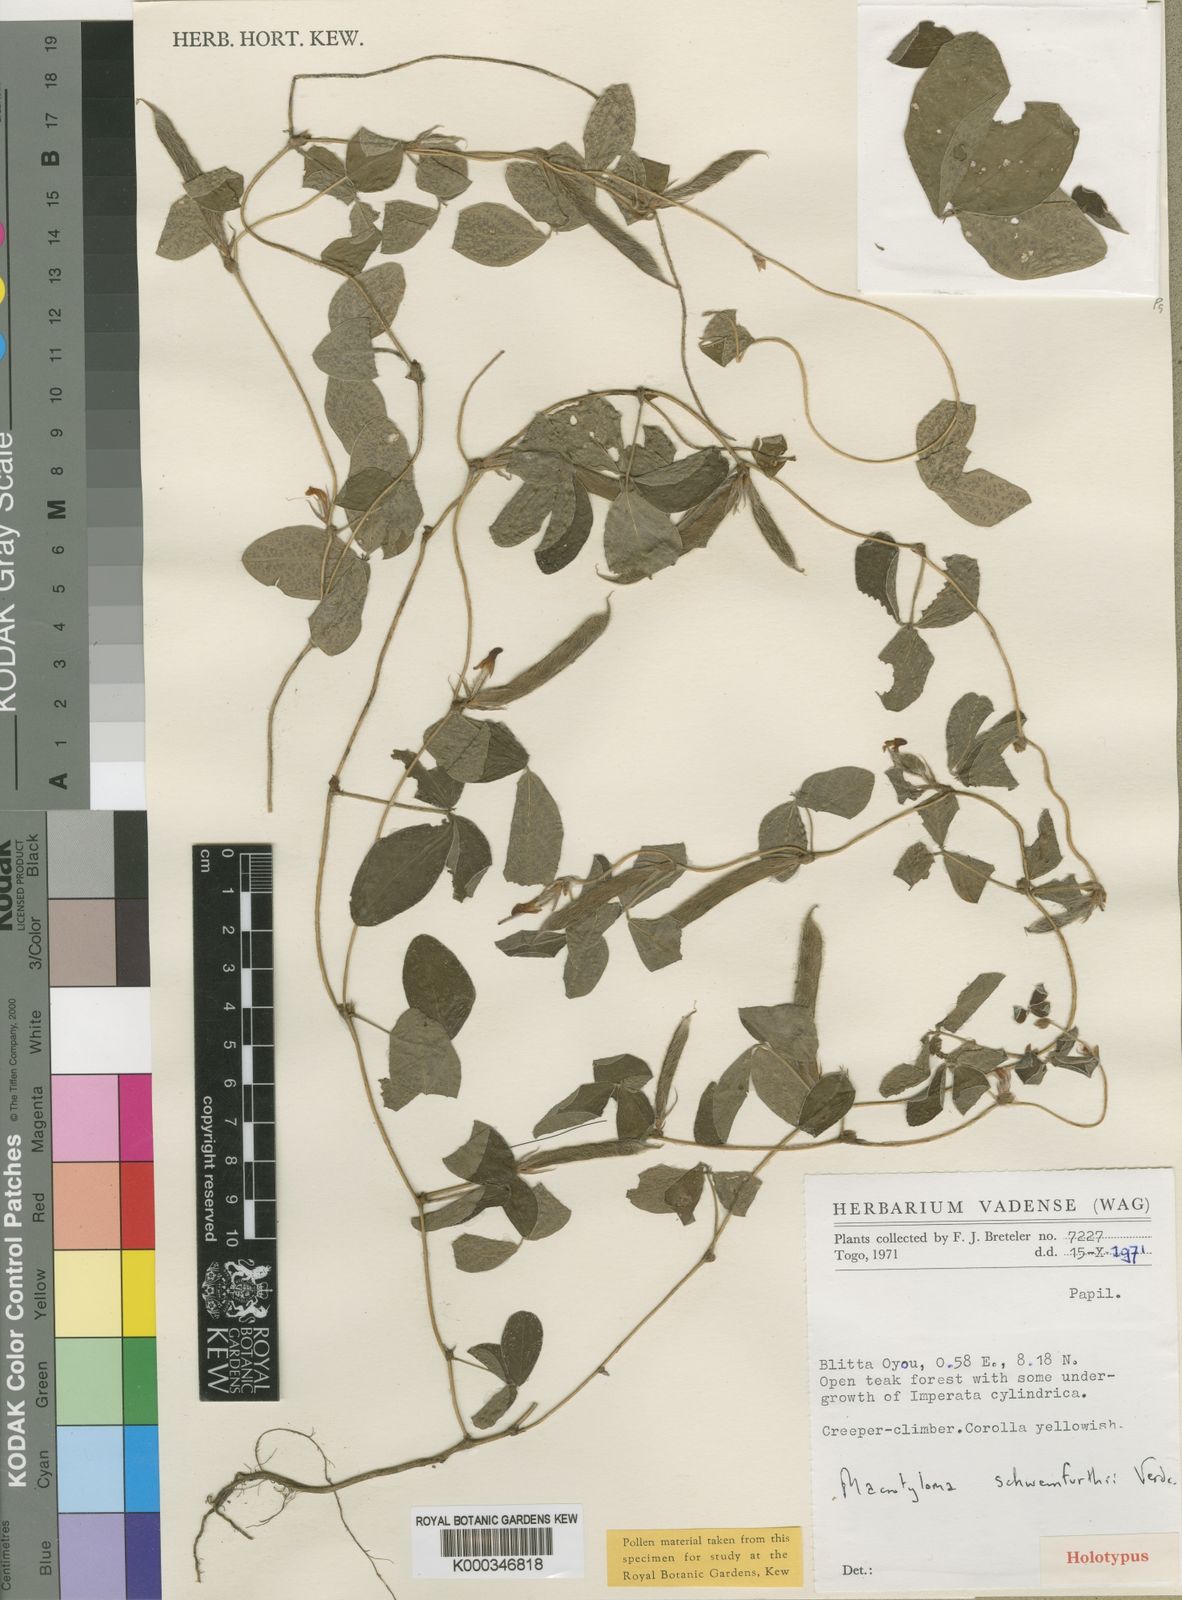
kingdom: Plantae
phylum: Tracheophyta
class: Magnoliopsida
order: Fabales
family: Fabaceae
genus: Macrotyloma
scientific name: Macrotyloma schweinfurthii
